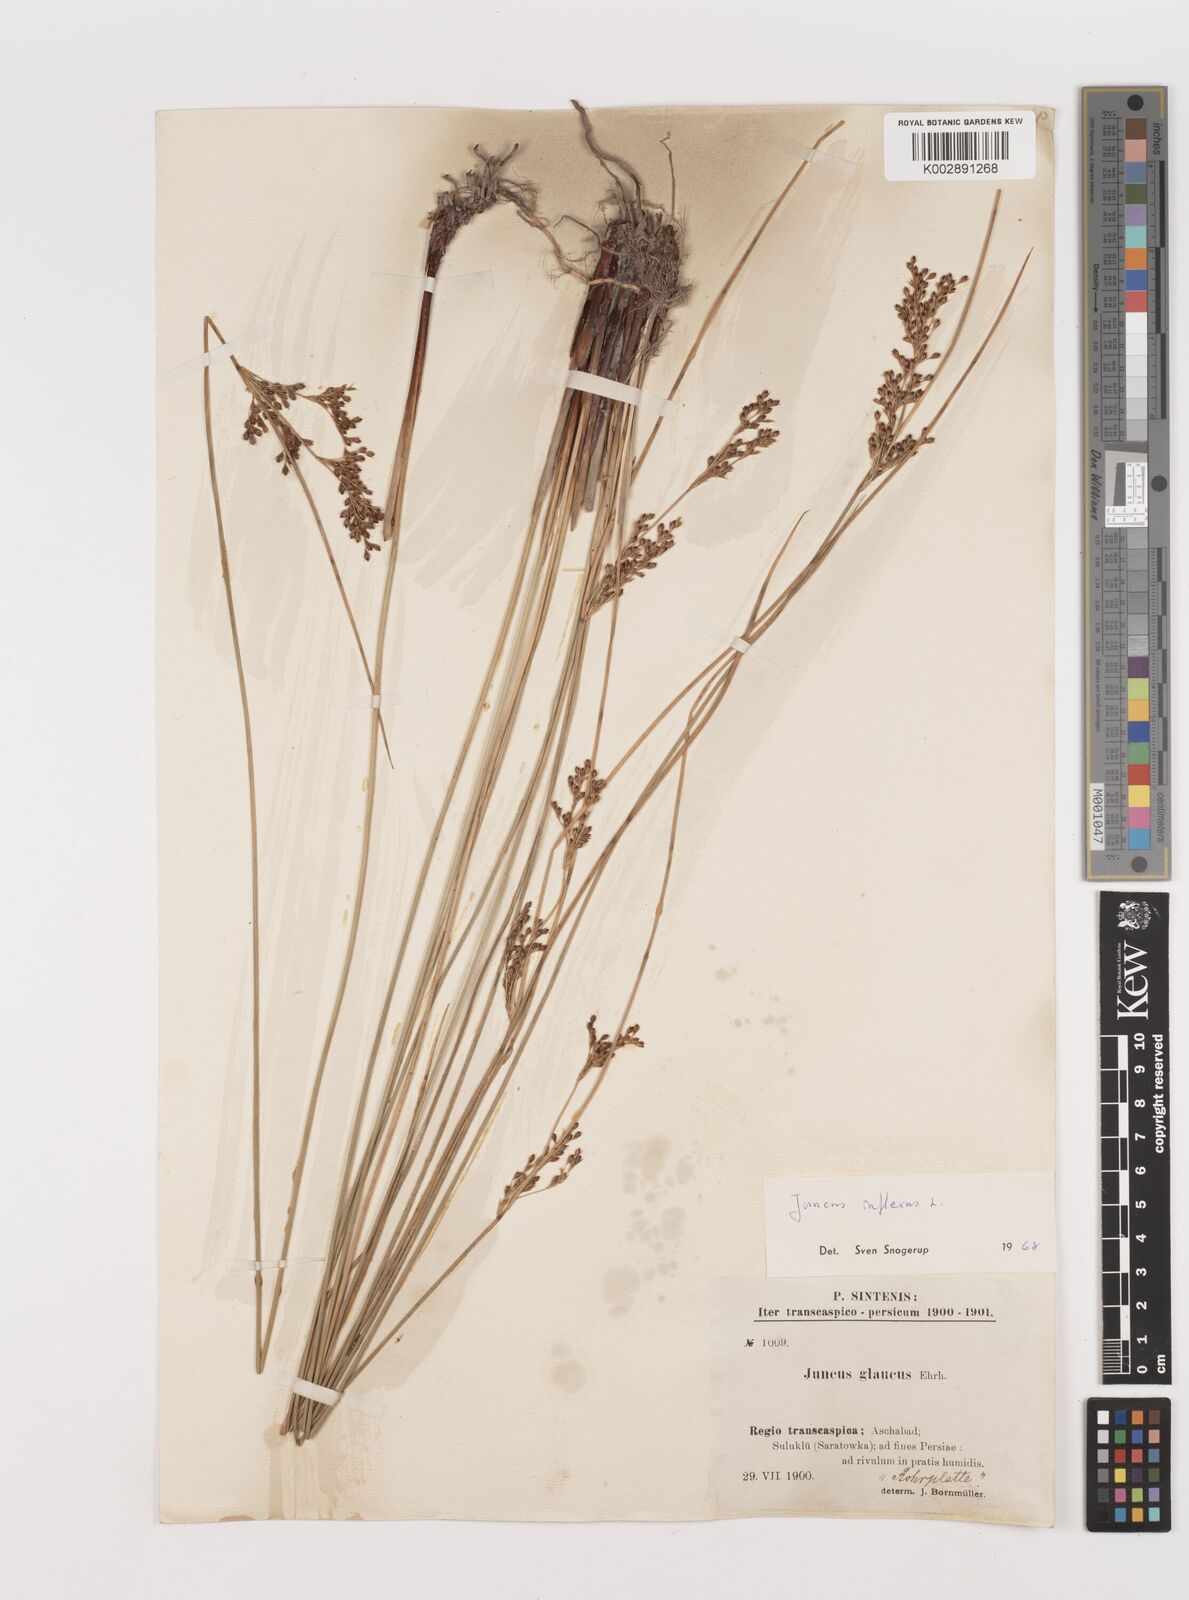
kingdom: Plantae
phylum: Tracheophyta
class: Liliopsida
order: Poales
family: Juncaceae
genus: Juncus
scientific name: Juncus inflexus
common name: Hard rush
